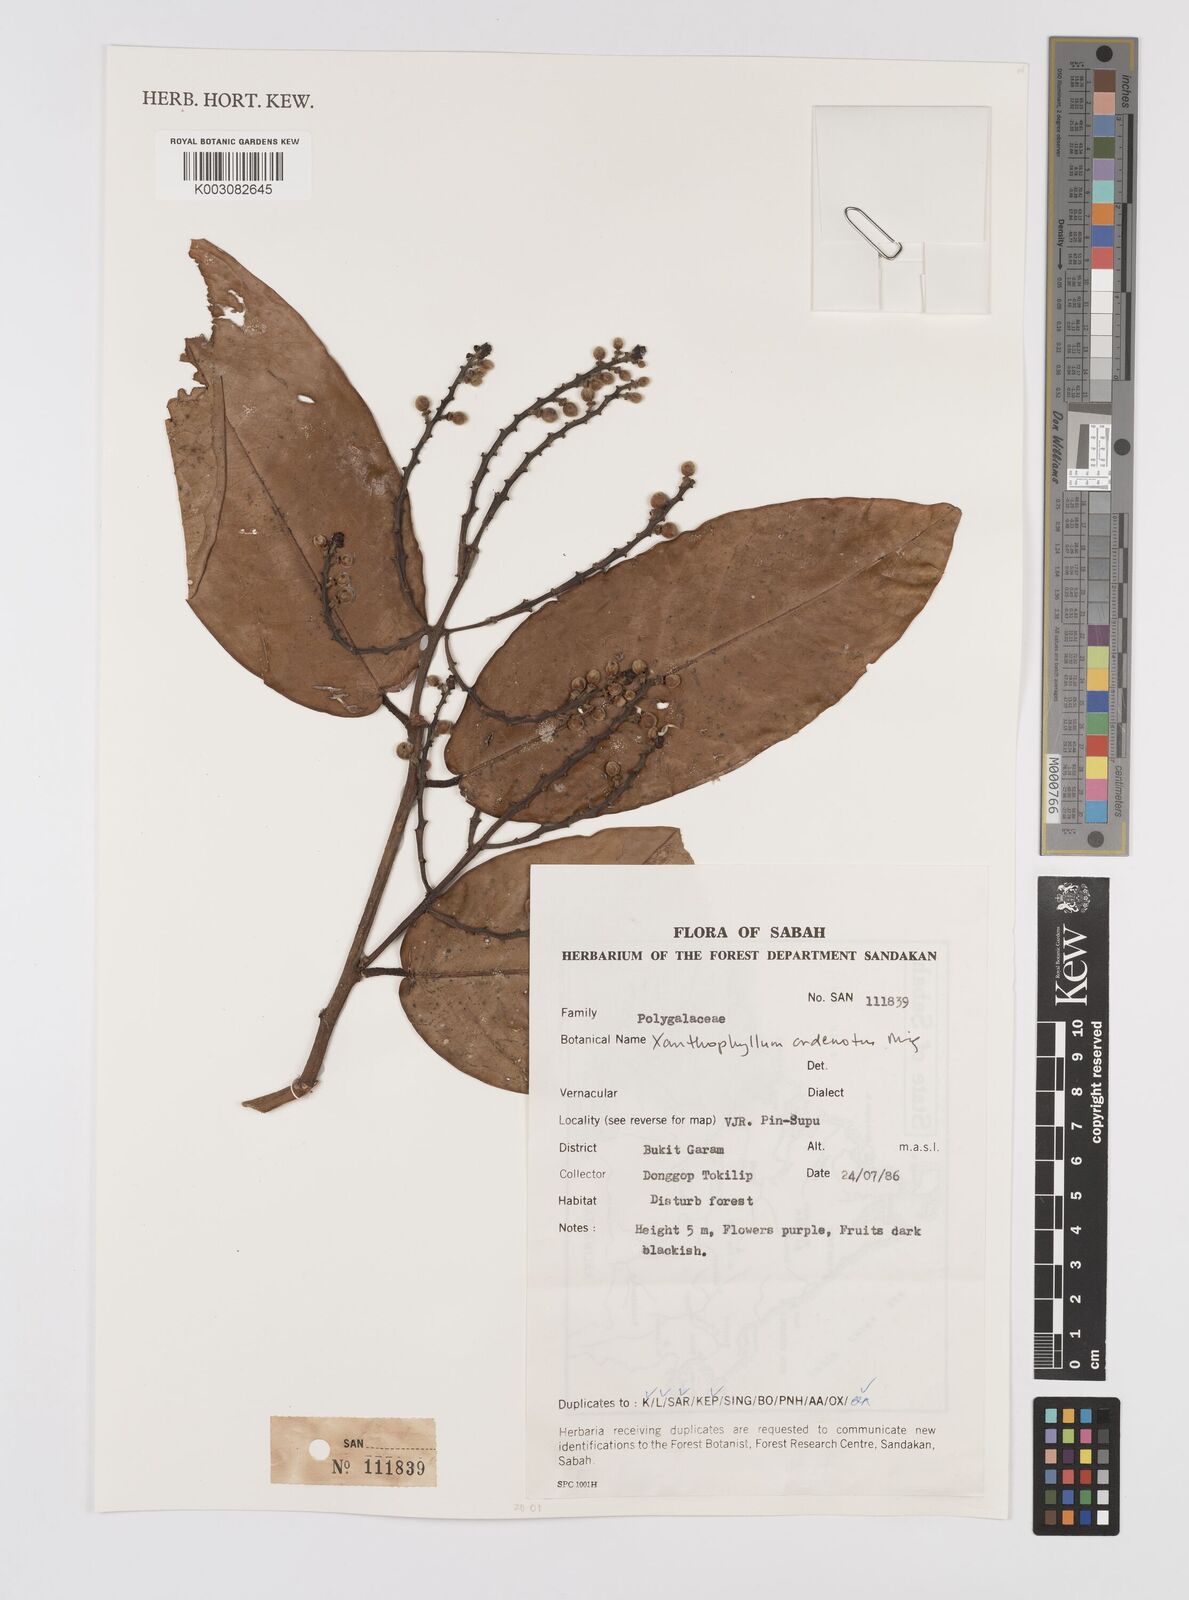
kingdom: Plantae
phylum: Tracheophyta
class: Magnoliopsida
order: Fabales
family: Polygalaceae
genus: Xanthophyllum
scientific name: Xanthophyllum adenotus
